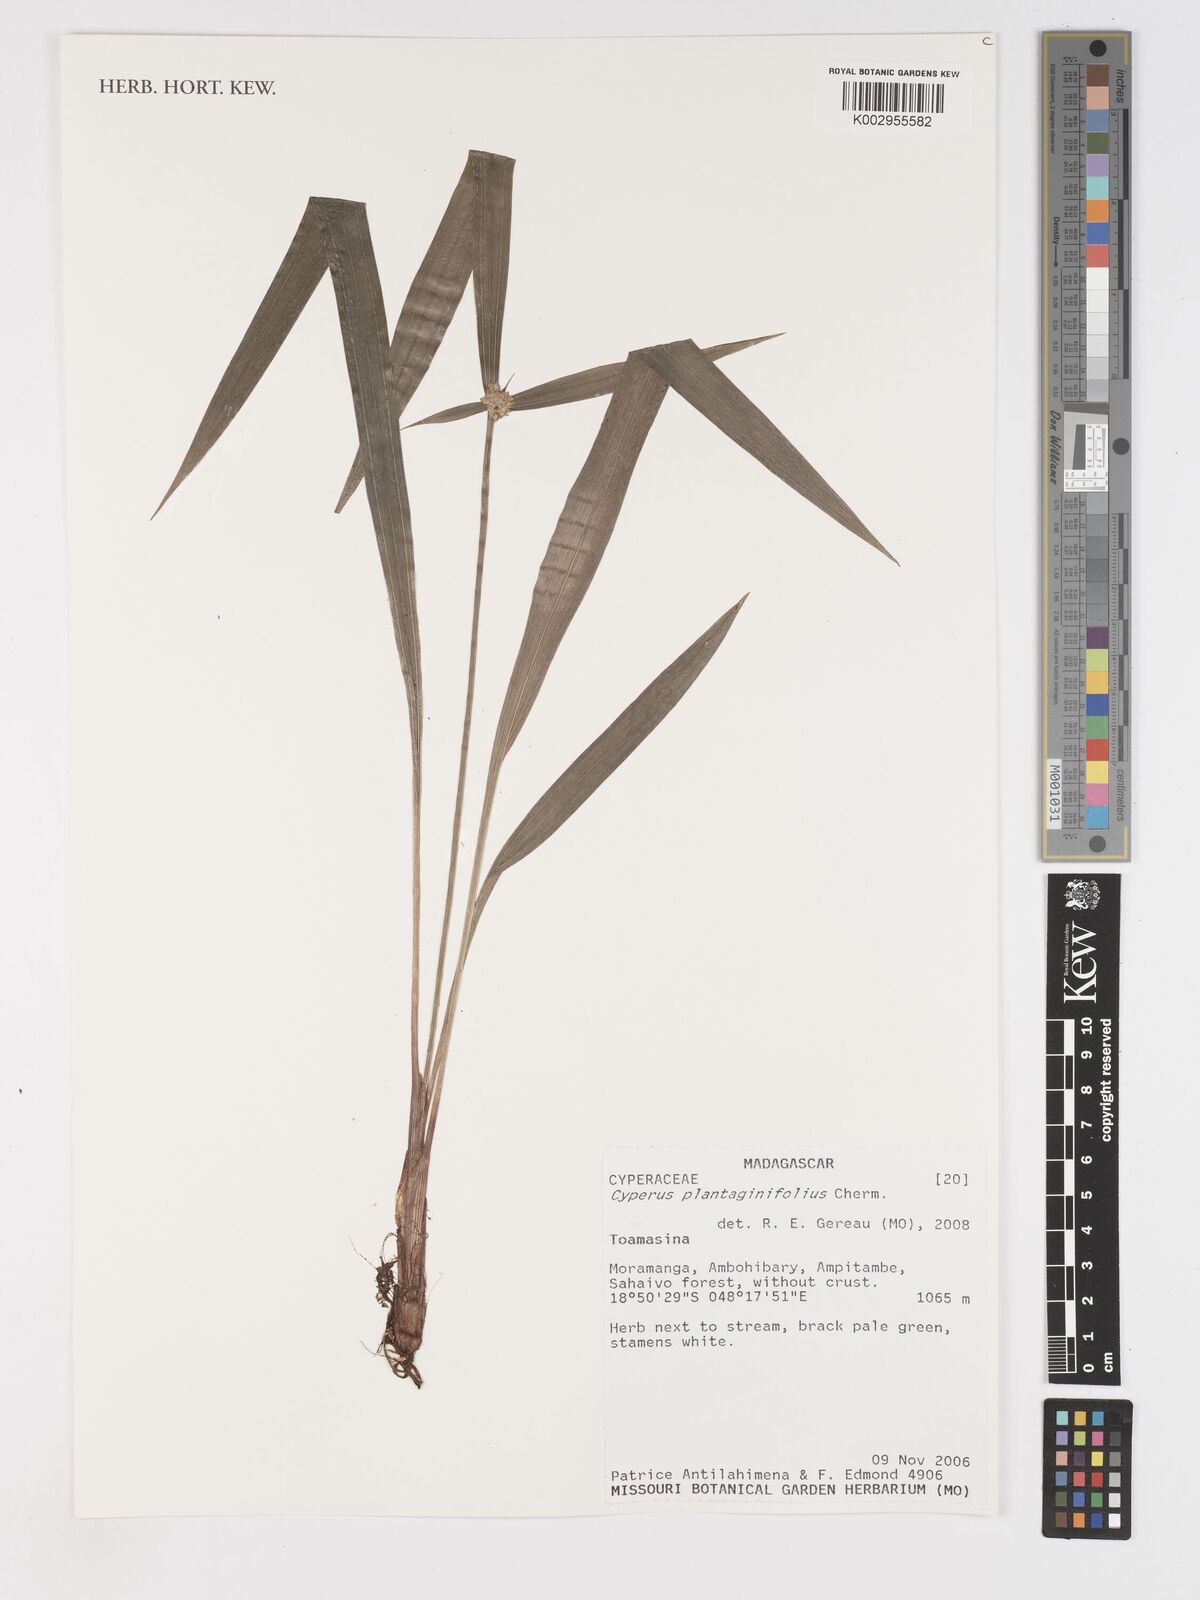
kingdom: Plantae
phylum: Tracheophyta
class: Liliopsida
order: Poales
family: Cyperaceae
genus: Cyperus
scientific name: Cyperus plantaginifolius
